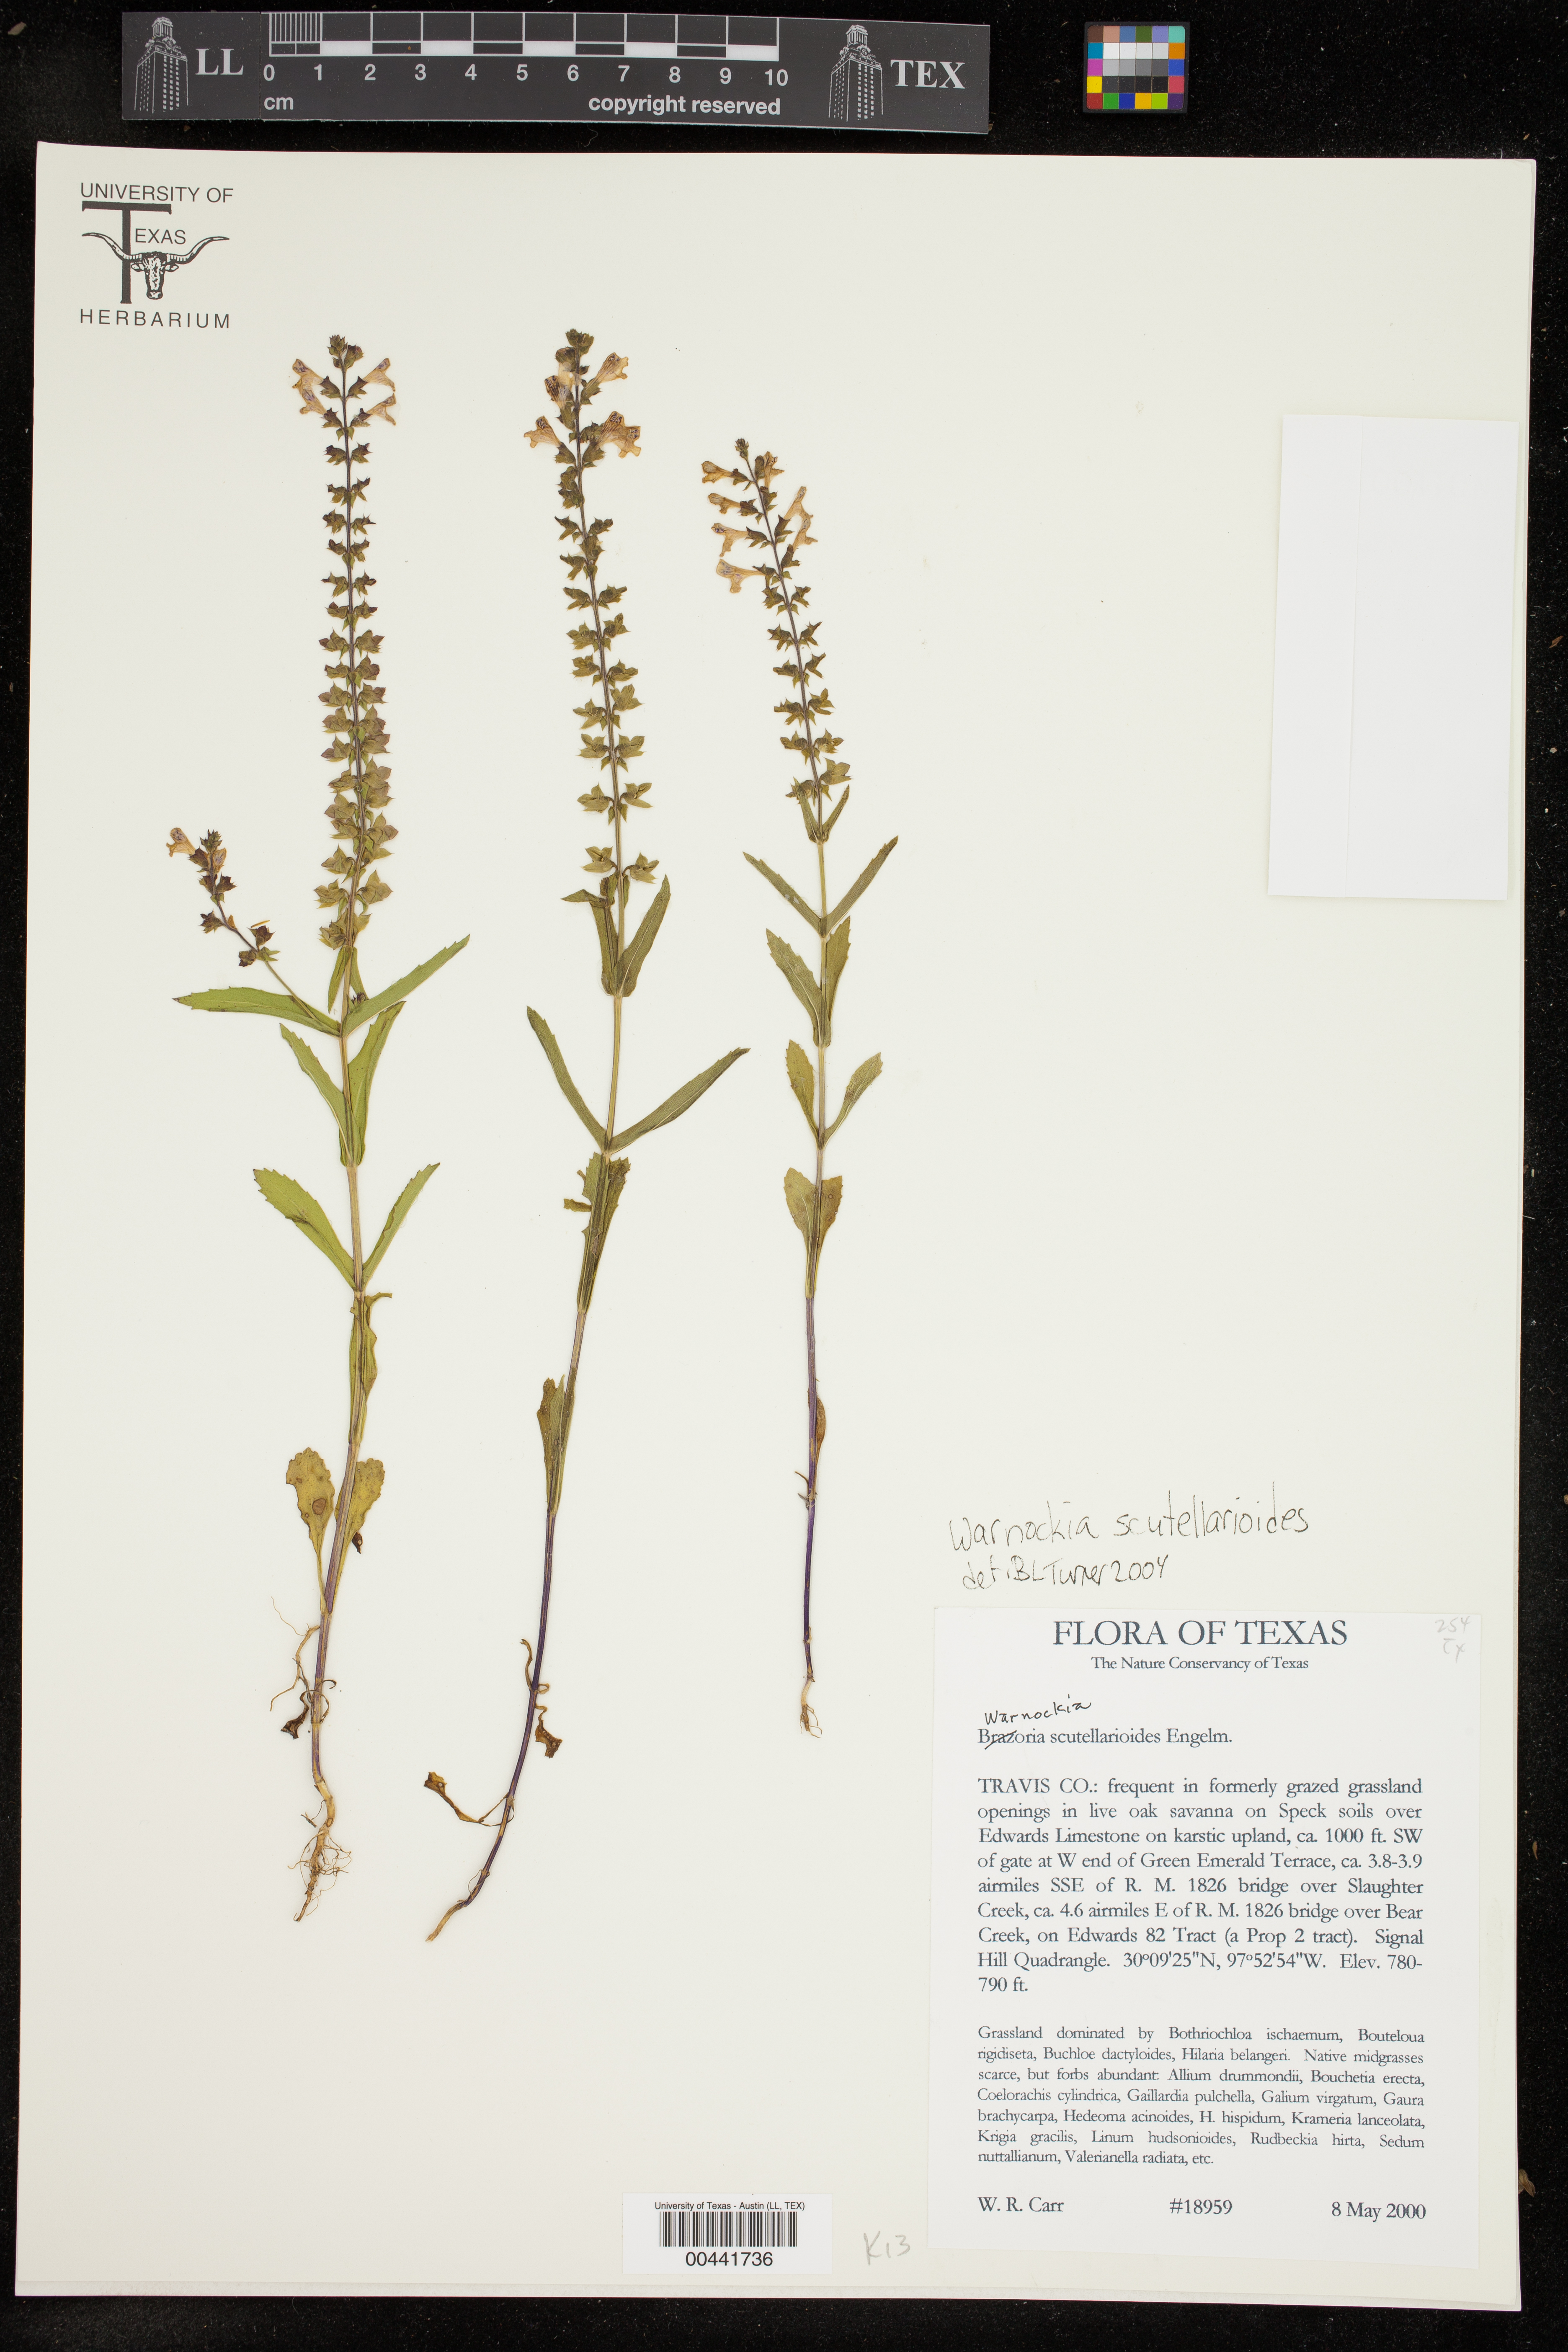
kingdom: Plantae
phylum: Tracheophyta
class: Magnoliopsida
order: Lamiales
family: Lamiaceae
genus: Warnockia
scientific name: Warnockia scutellarioides
